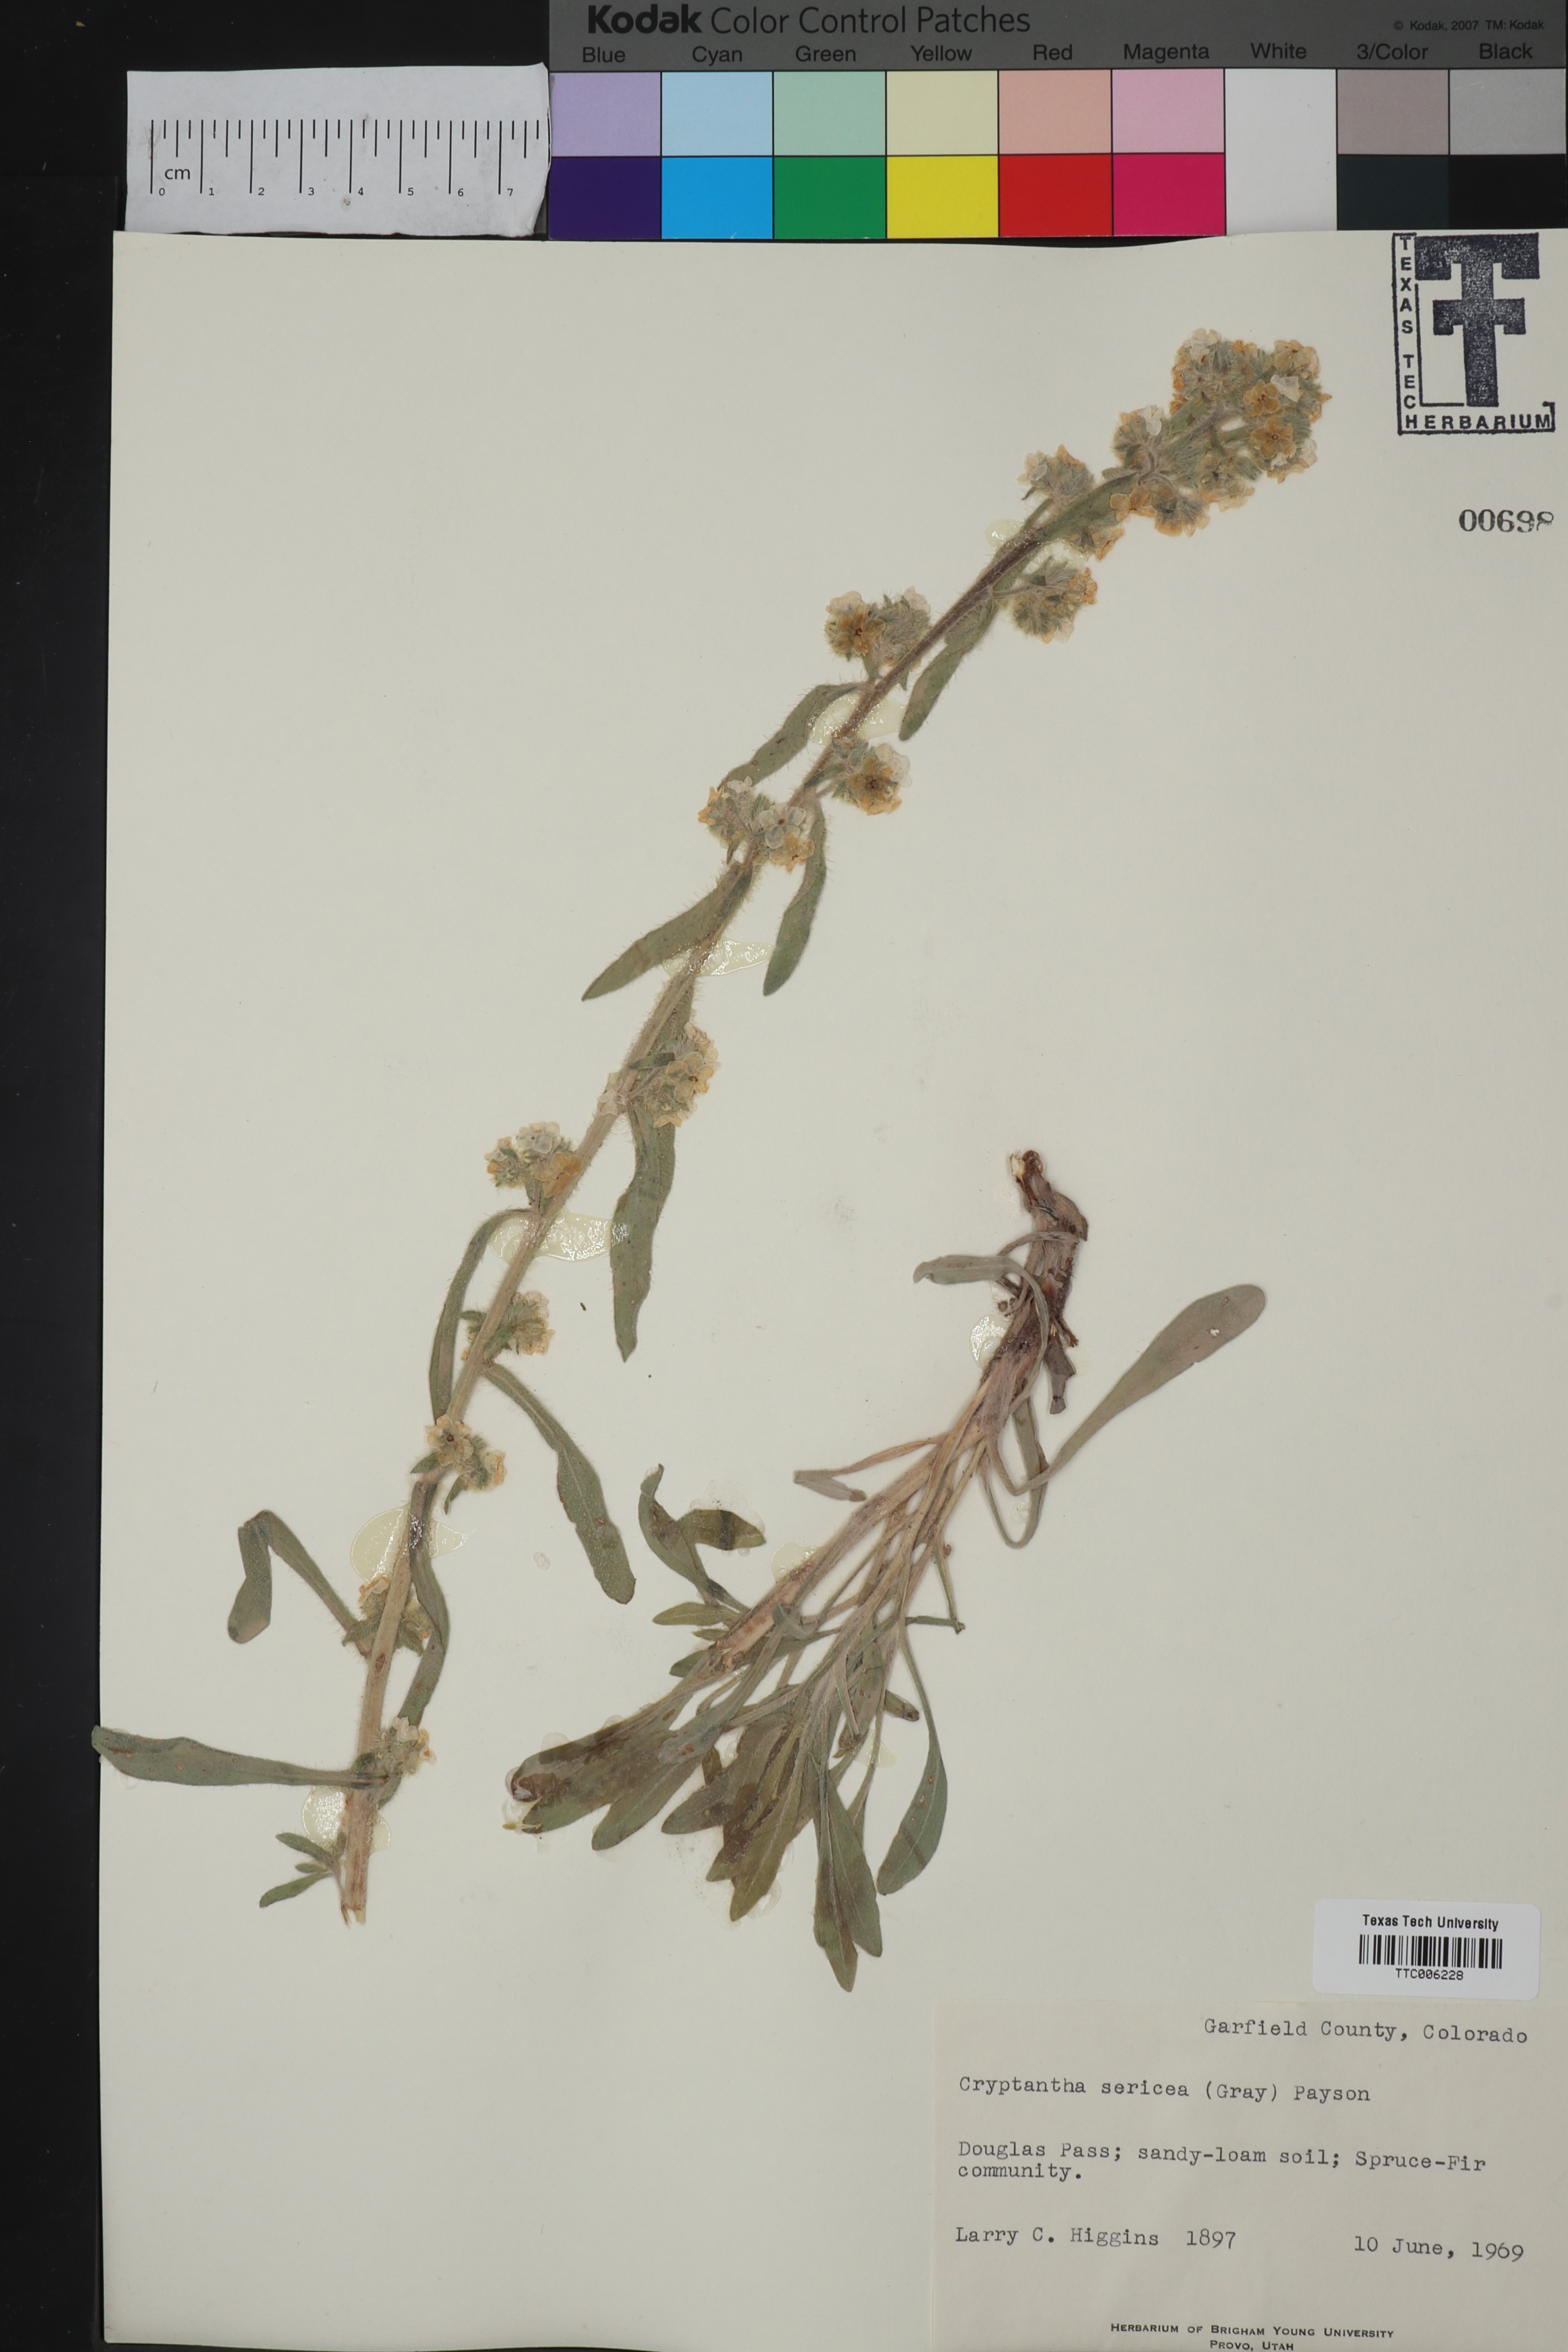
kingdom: Plantae
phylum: Tracheophyta
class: Magnoliopsida
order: Boraginales
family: Boraginaceae
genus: Oreocarya
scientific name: Oreocarya sericea
